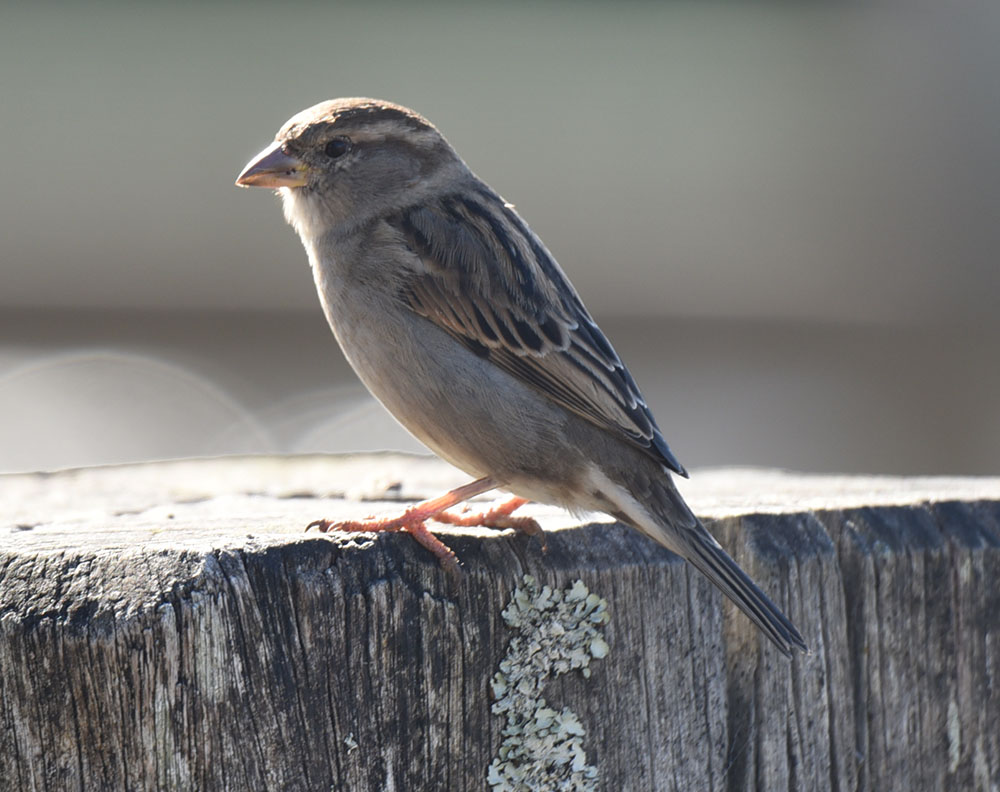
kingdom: Animalia
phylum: Chordata
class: Aves
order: Passeriformes
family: Passeridae
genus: Passer
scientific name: Passer domesticus
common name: House sparrow
